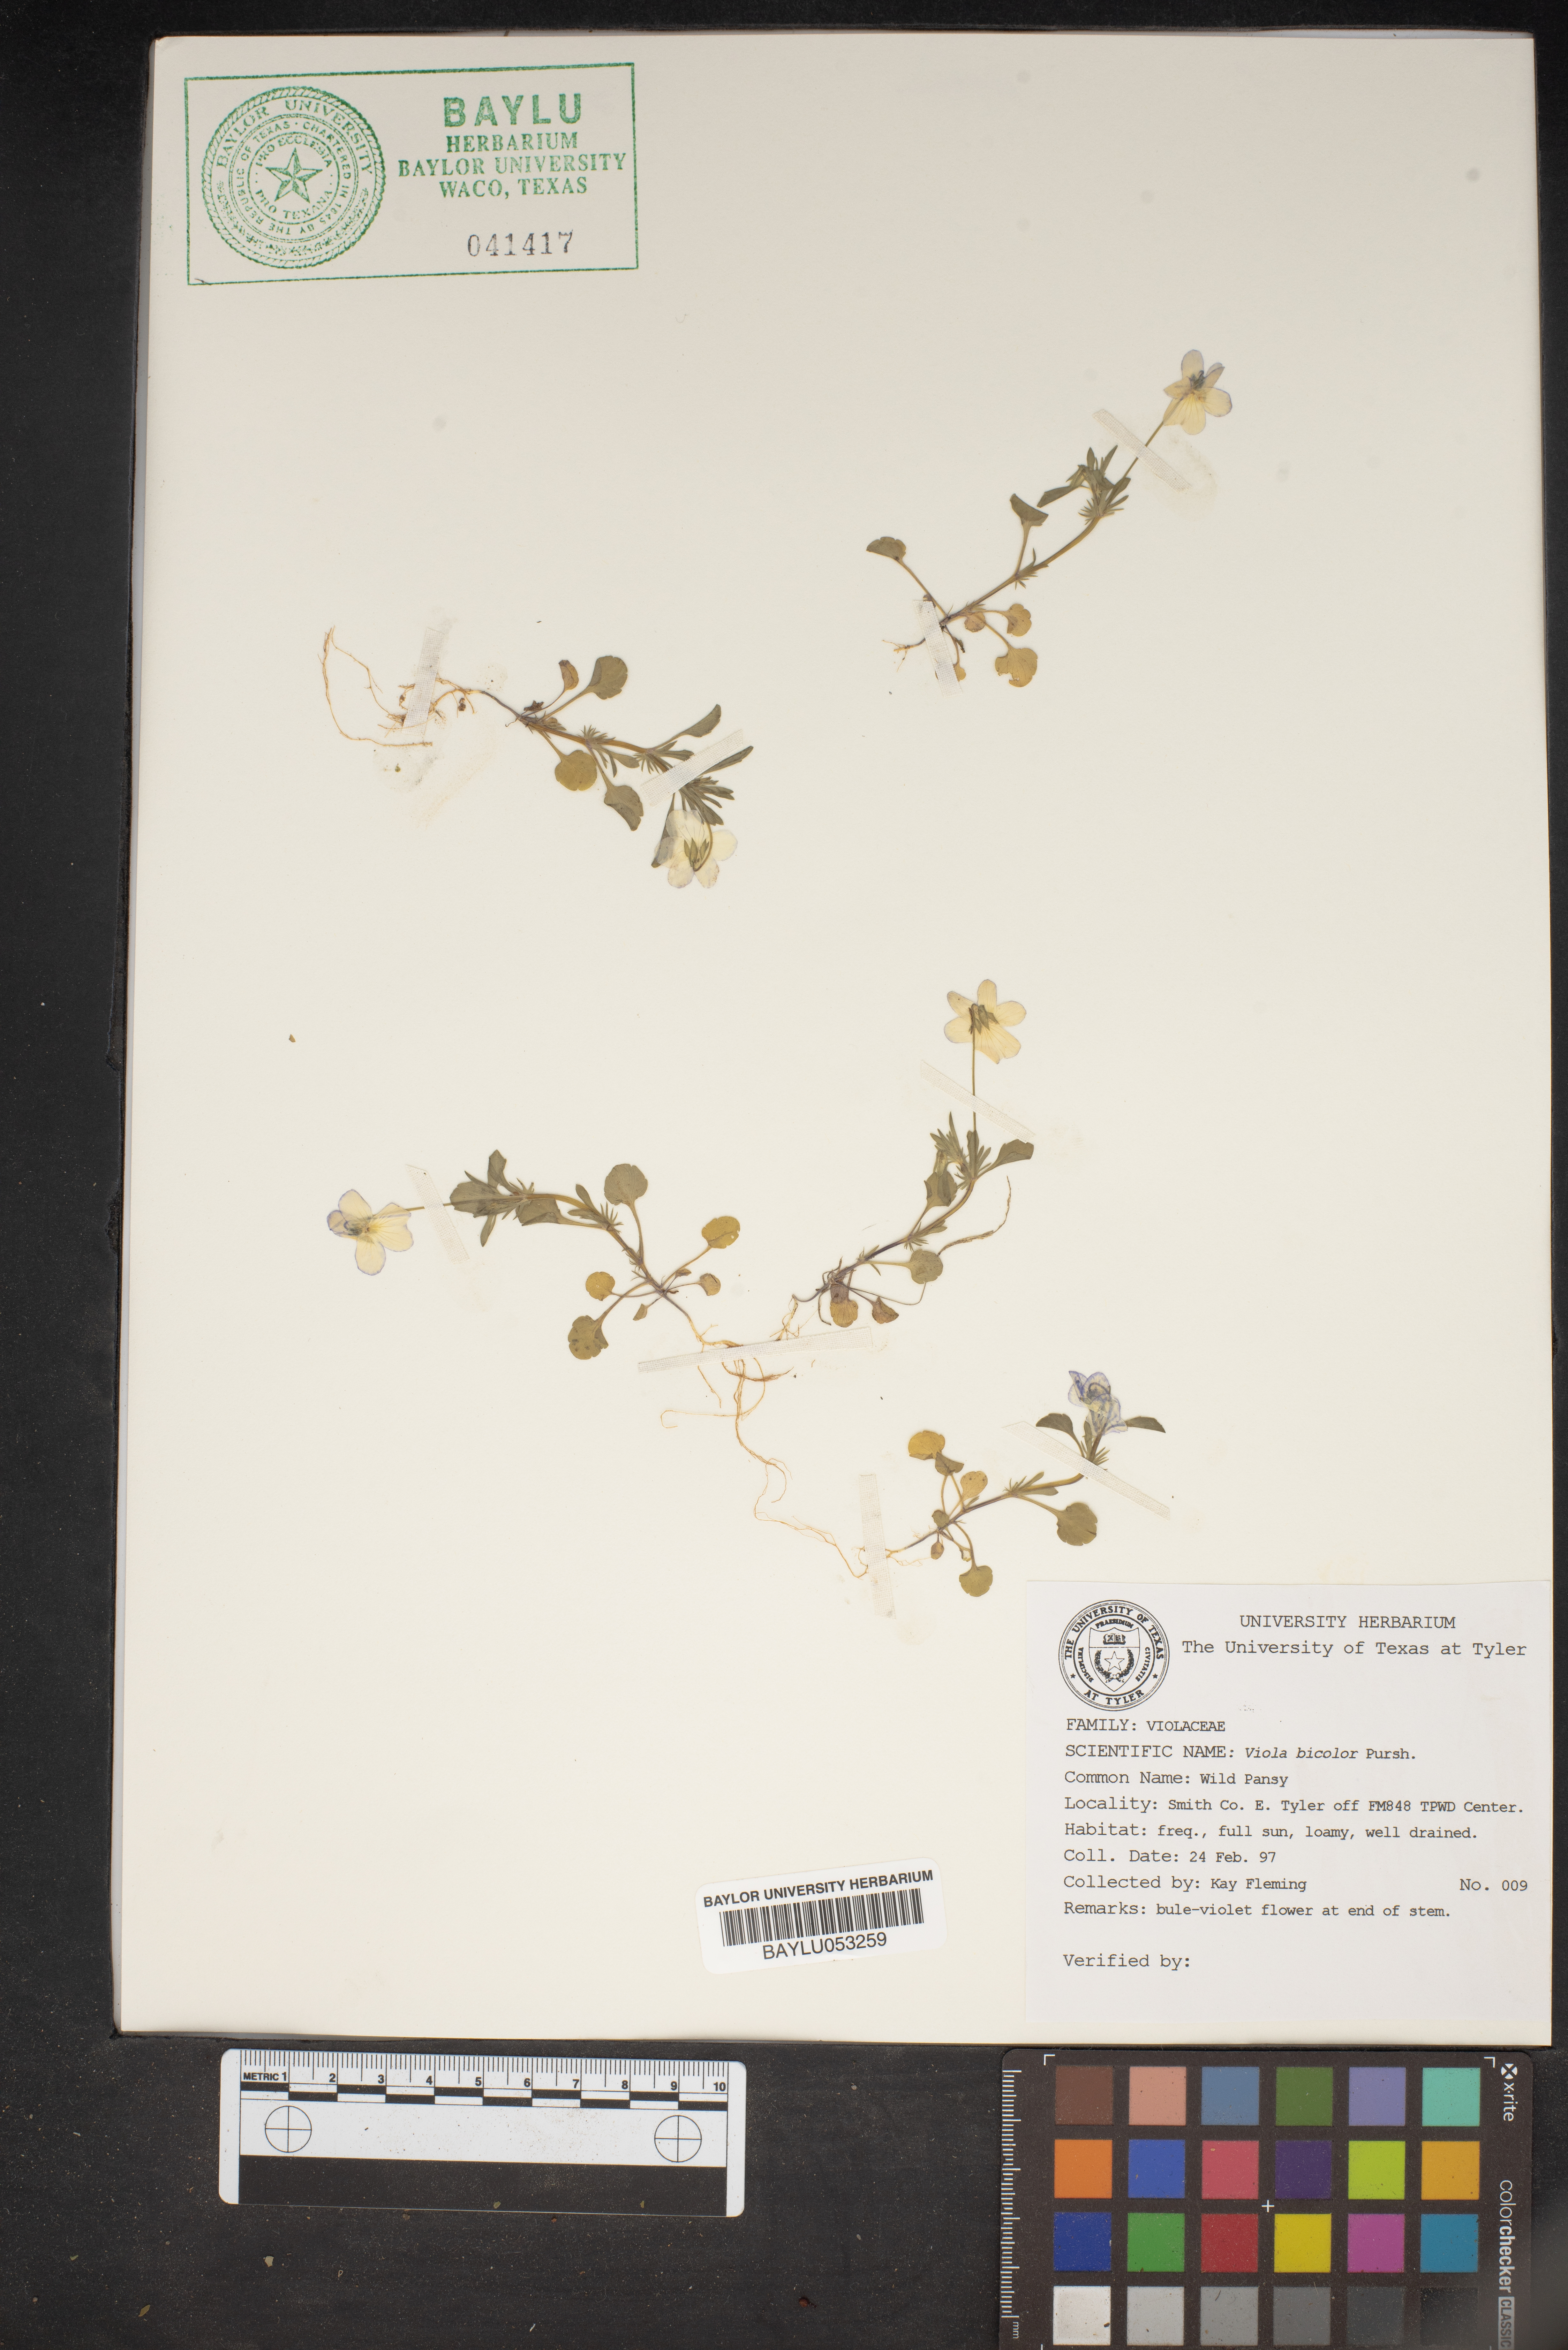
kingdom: Plantae
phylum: Tracheophyta
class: Magnoliopsida
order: Malpighiales
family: Violaceae
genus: Viola
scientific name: Viola rafinesquei
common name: American field pansy
